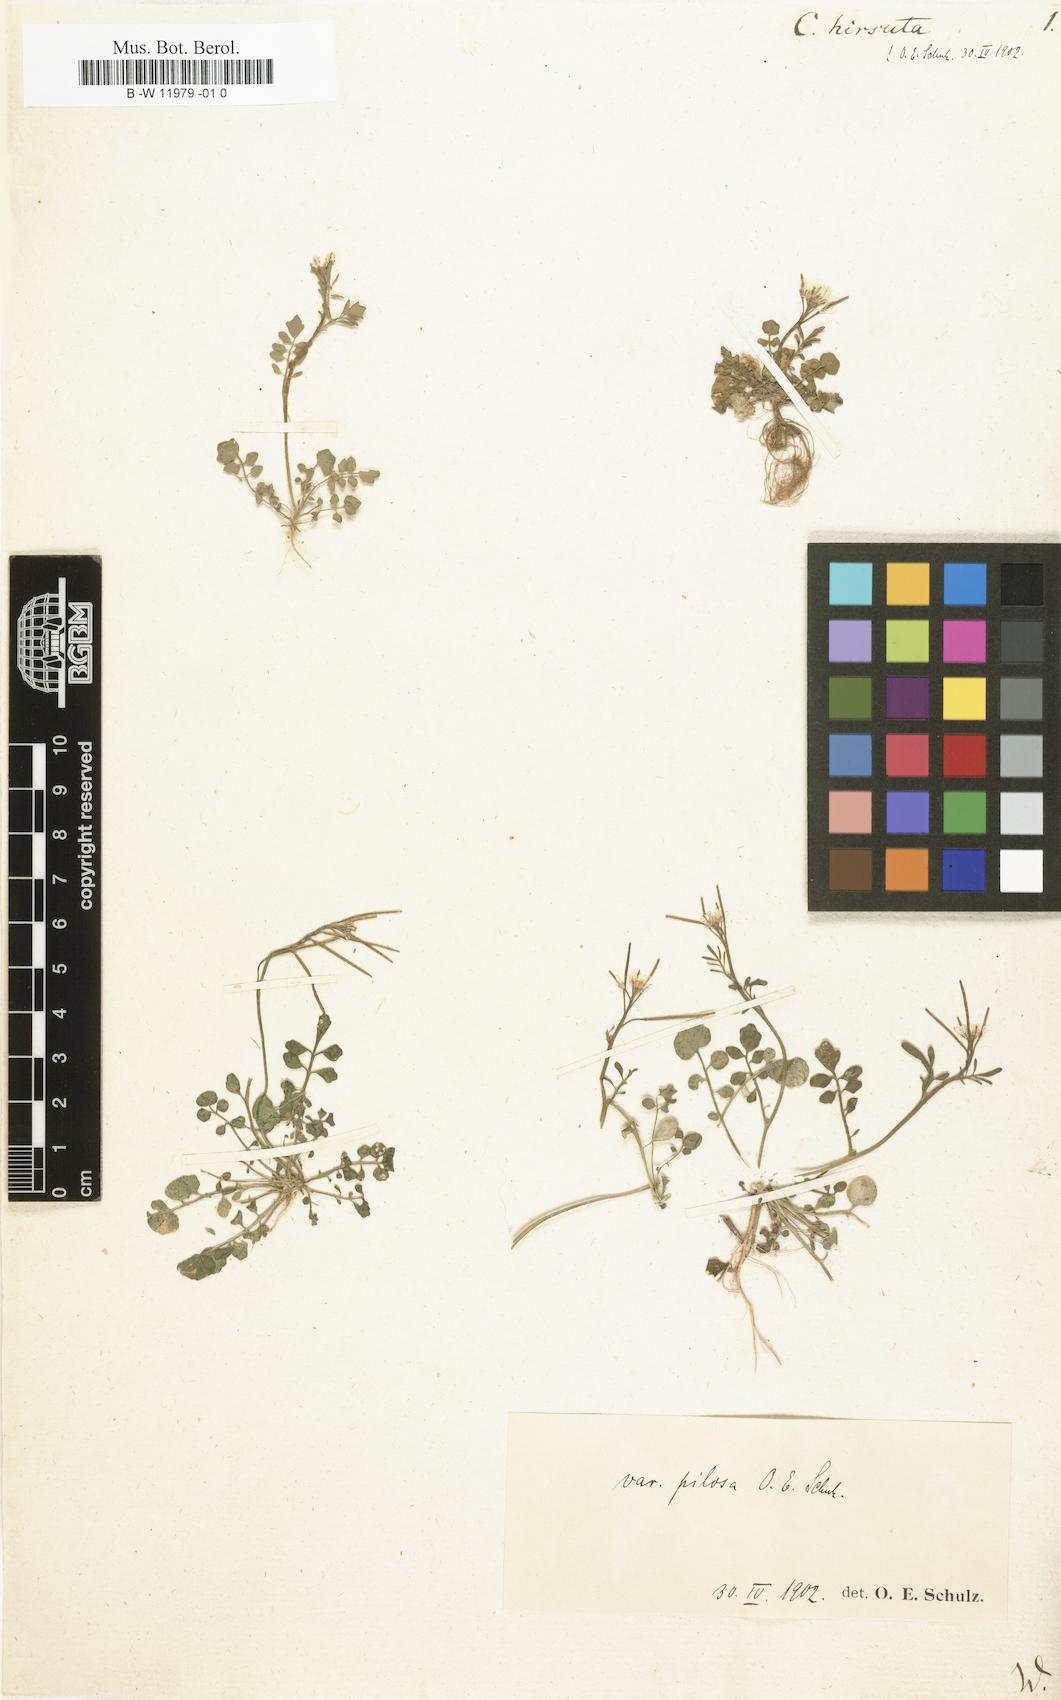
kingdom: Plantae
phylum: Tracheophyta
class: Magnoliopsida
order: Brassicales
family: Brassicaceae
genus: Cardamine
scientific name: Cardamine hirsuta
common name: Hairy bittercress
